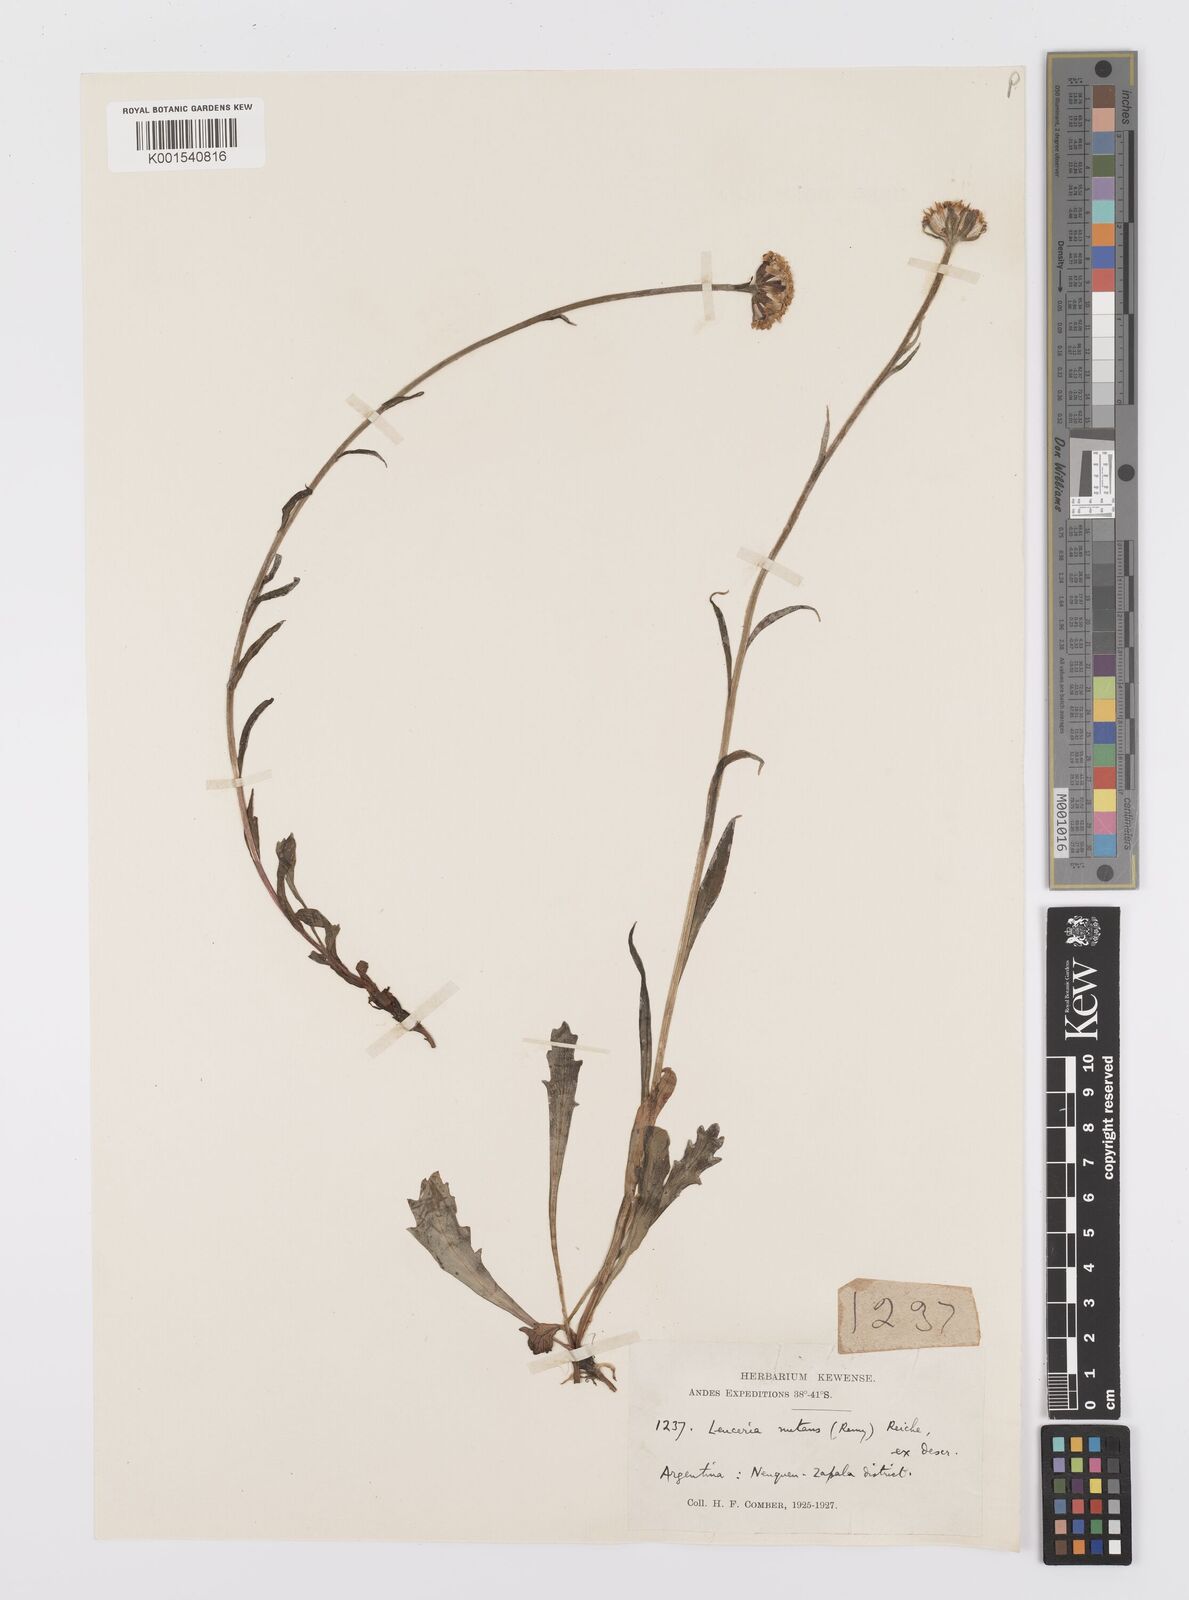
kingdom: Plantae
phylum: Tracheophyta
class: Magnoliopsida
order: Asterales
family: Asteraceae
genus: Leucheria
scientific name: Leucheria nutans
